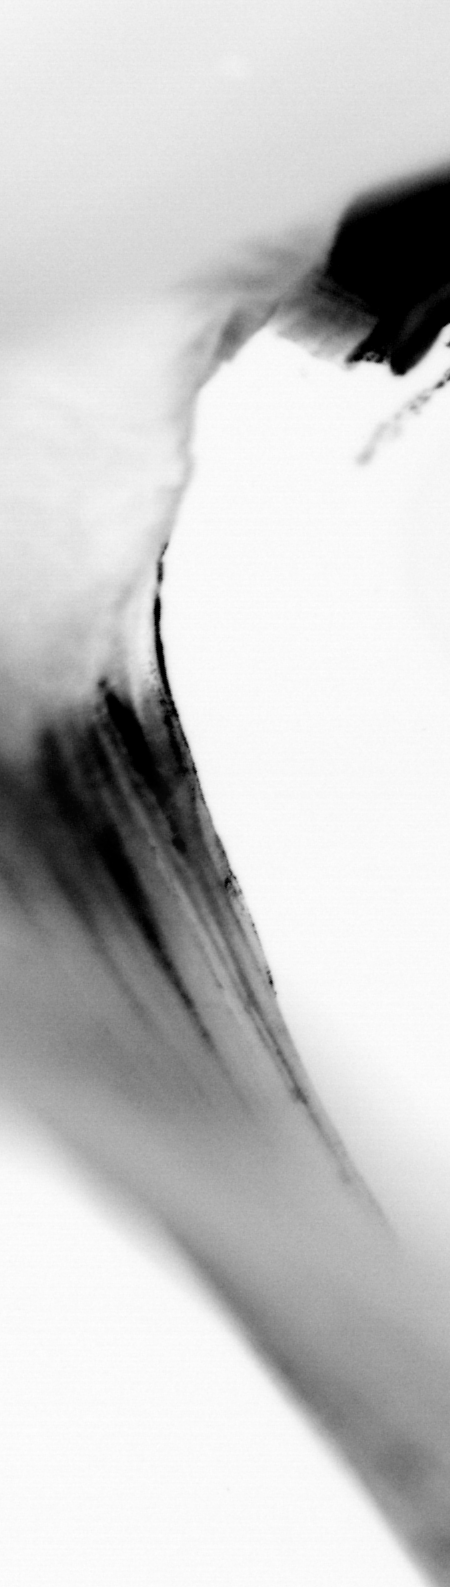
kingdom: Animalia
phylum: Chordata
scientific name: Chordata
